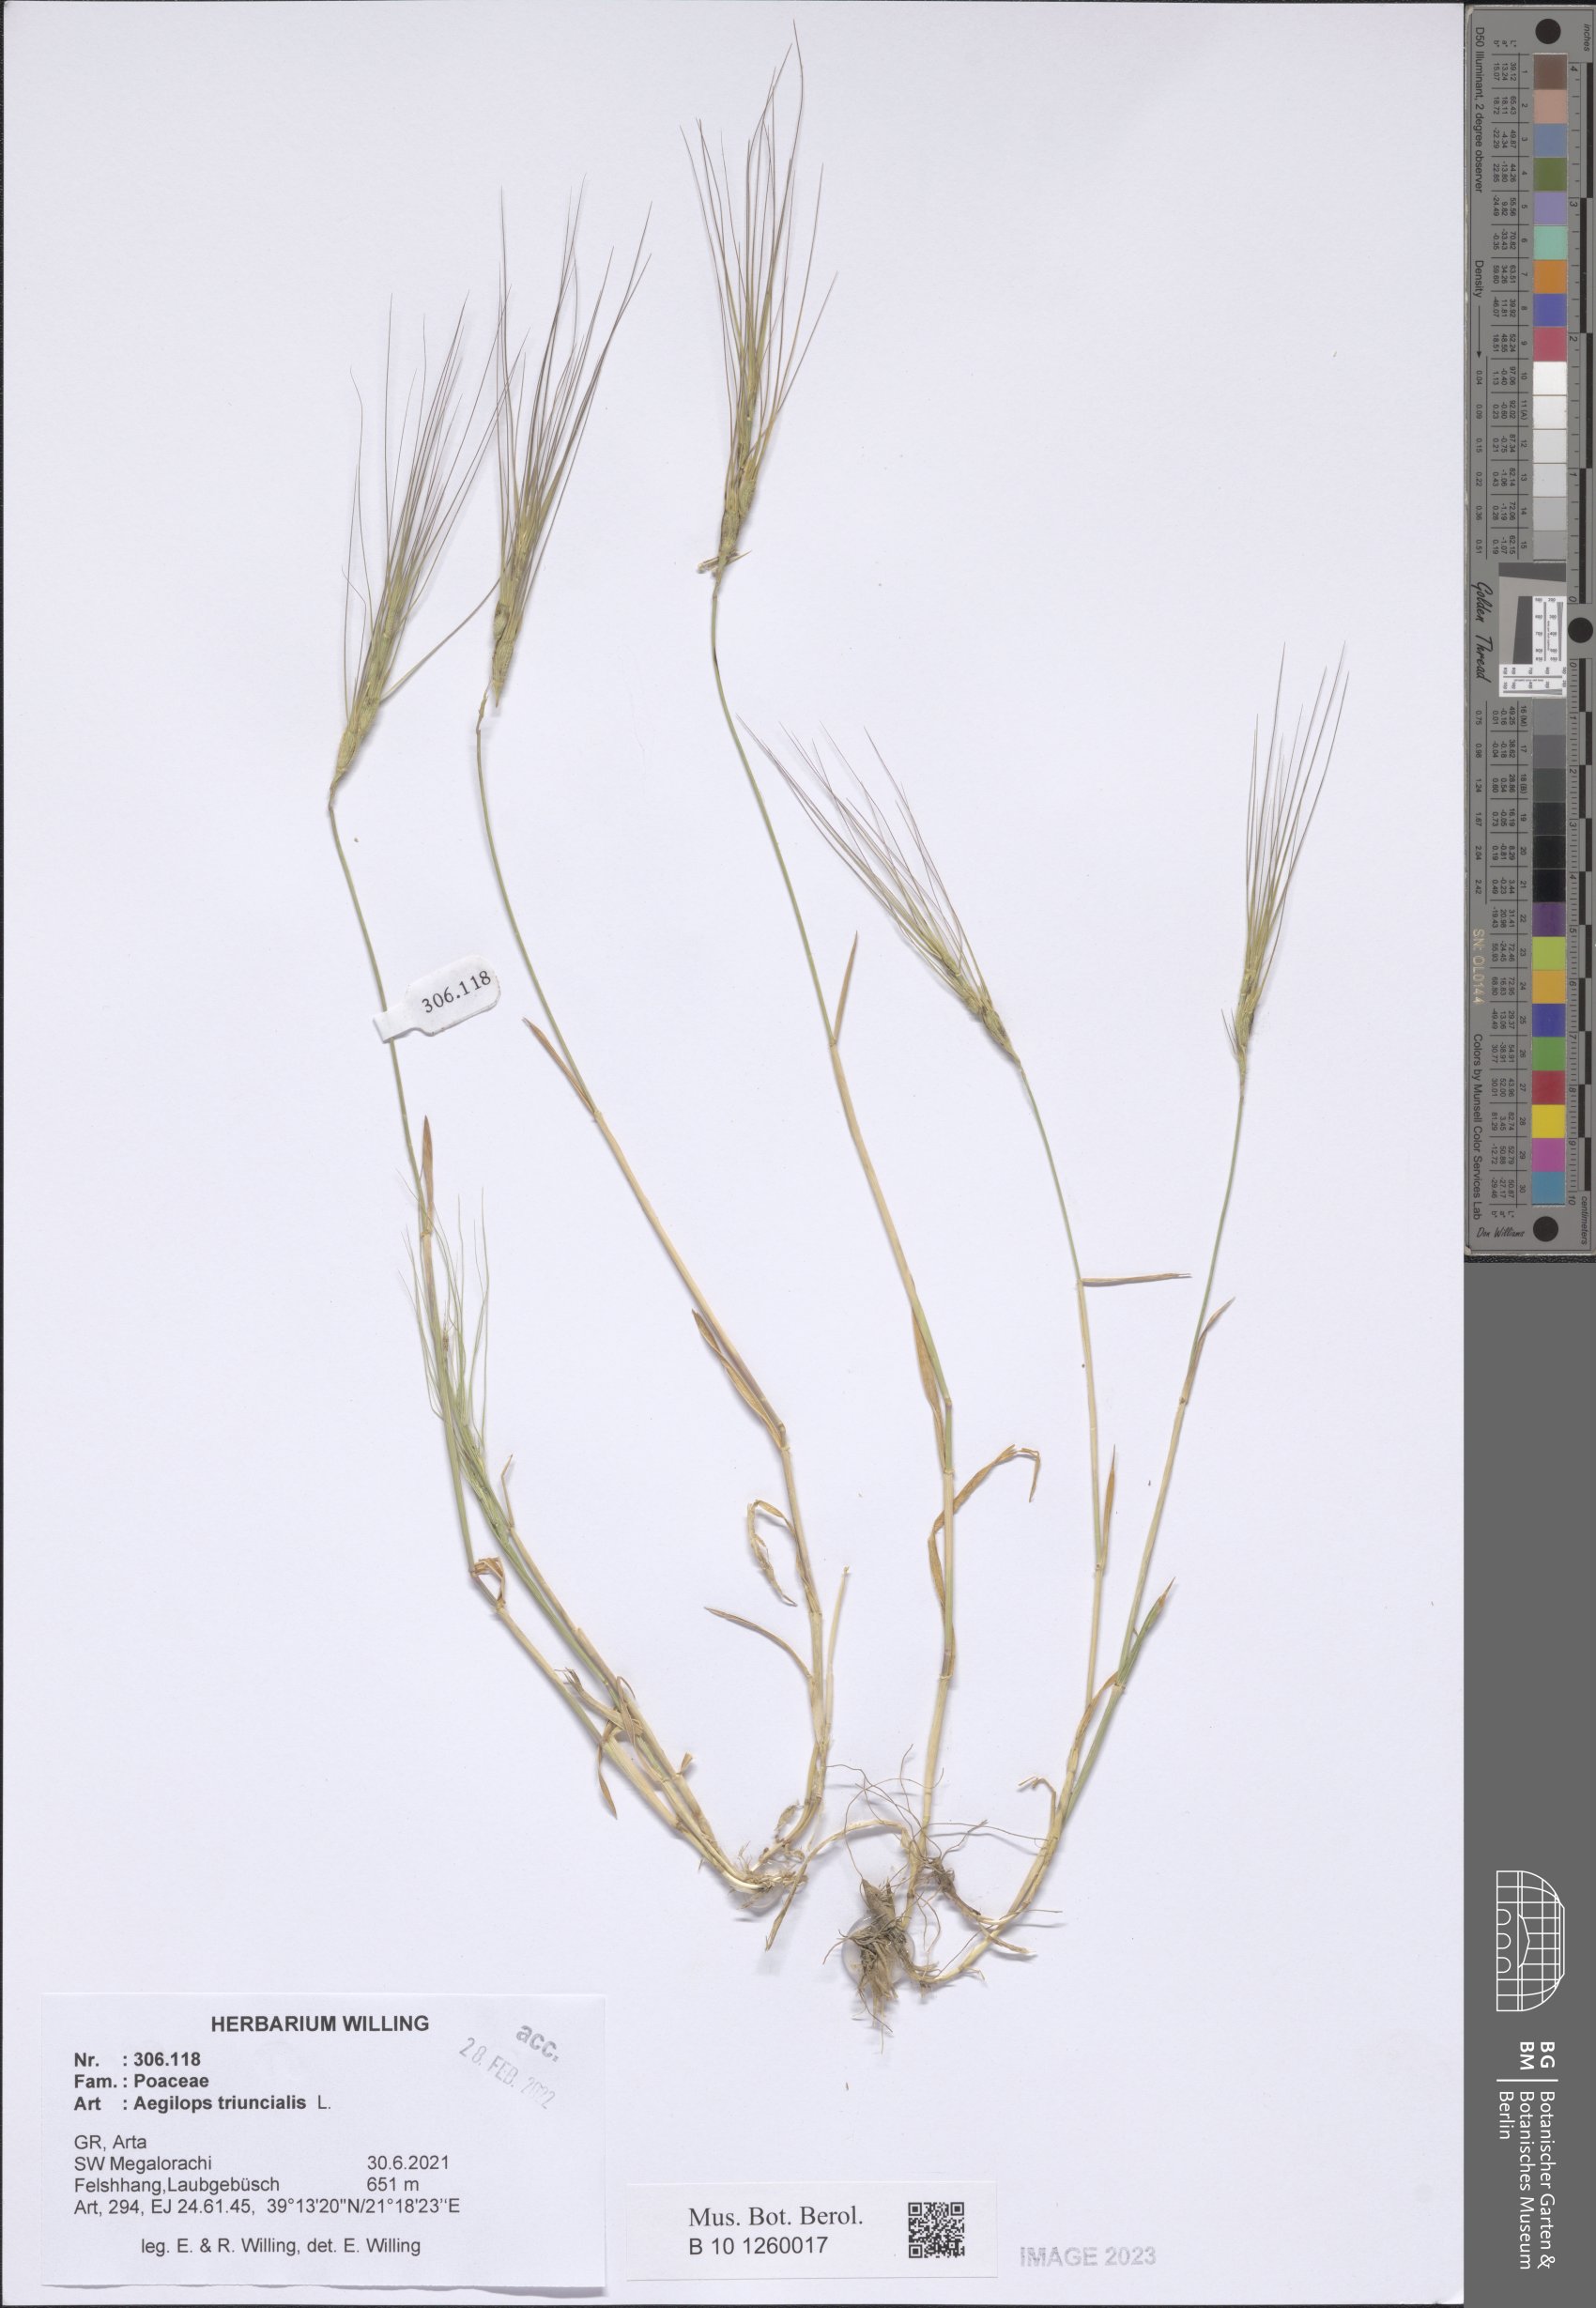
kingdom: Plantae
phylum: Tracheophyta
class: Liliopsida
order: Poales
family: Poaceae
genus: Aegilops
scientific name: Aegilops triuncialis
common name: Barb goat grass
